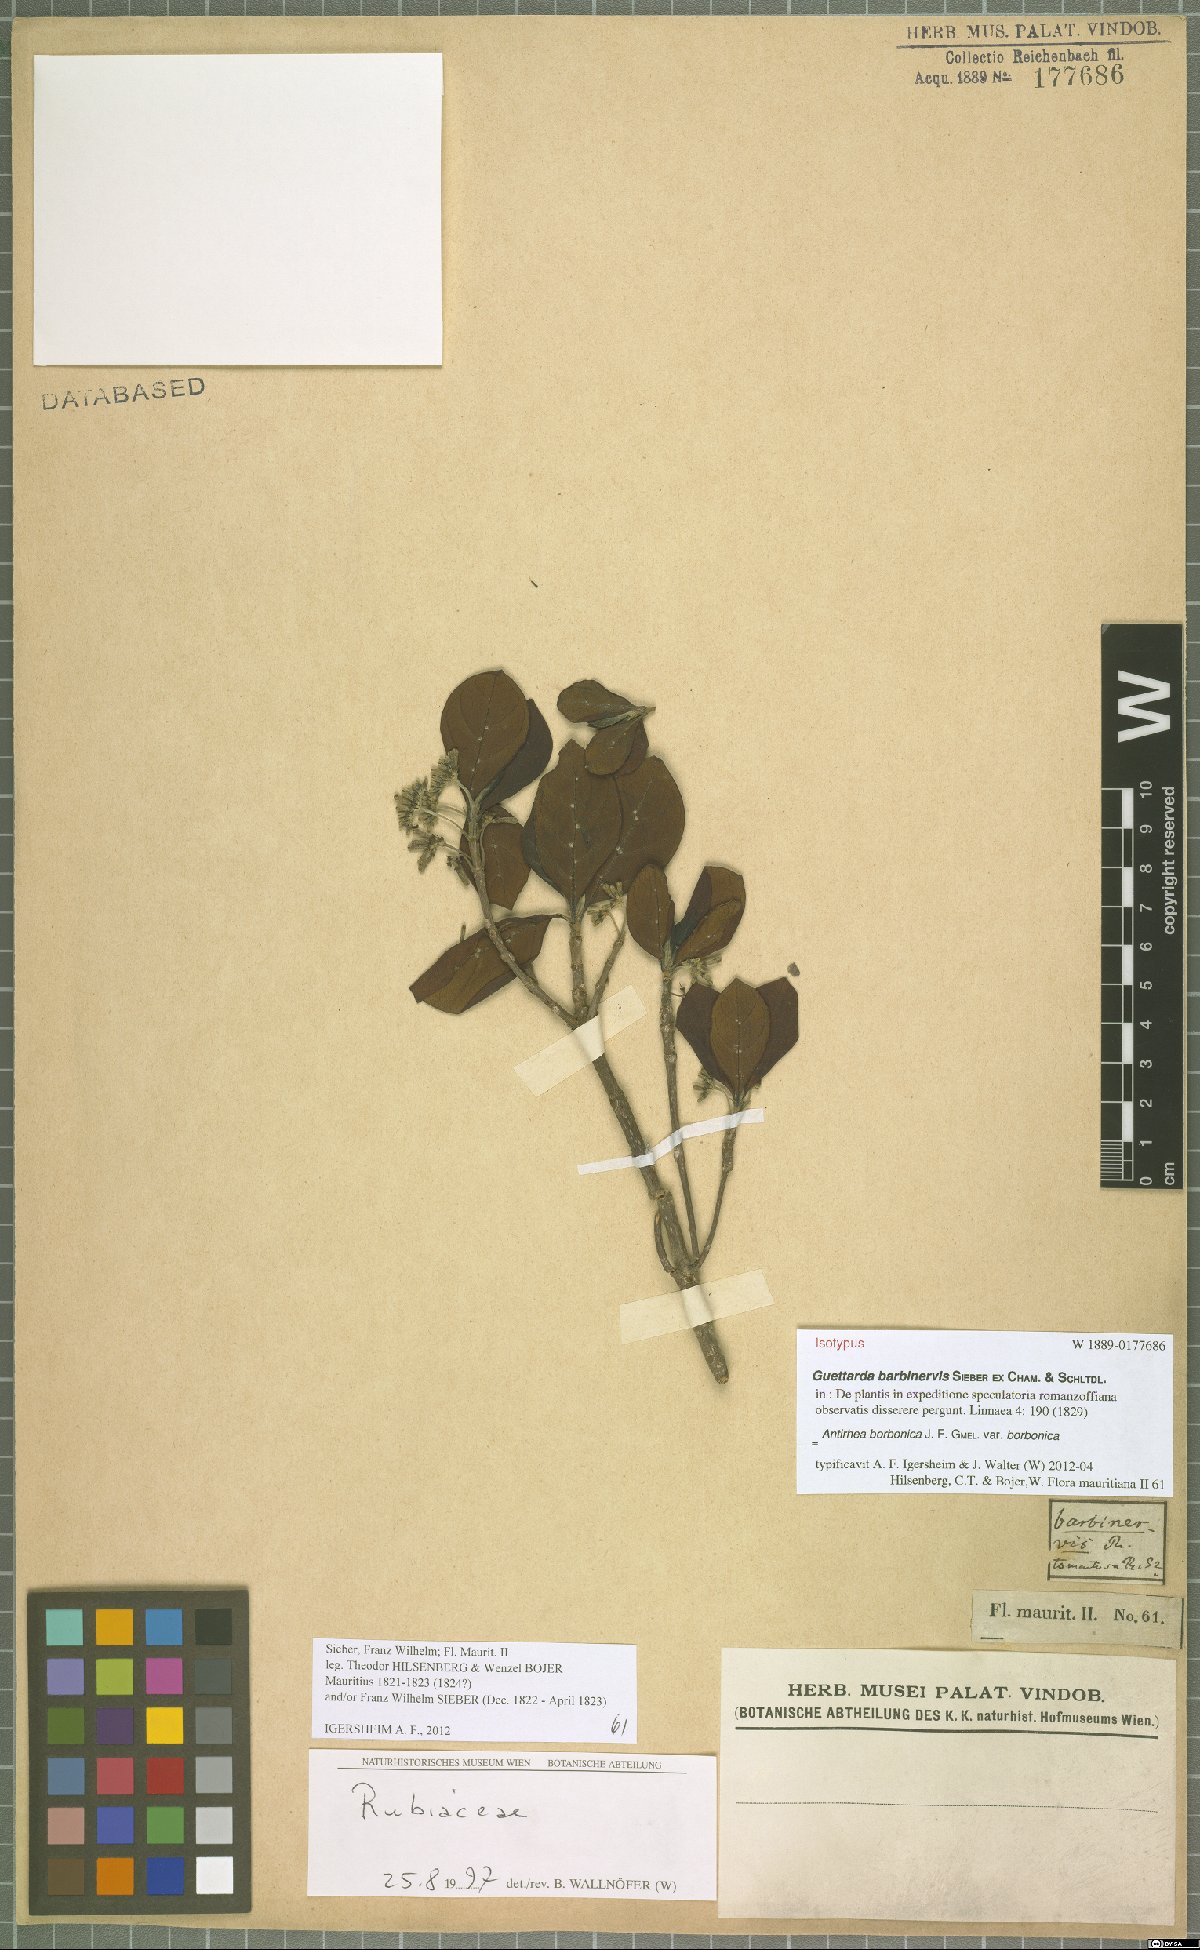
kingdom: Plantae
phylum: Tracheophyta
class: Magnoliopsida
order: Gentianales
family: Rubiaceae
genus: Antirhea
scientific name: Antirhea borbonica
